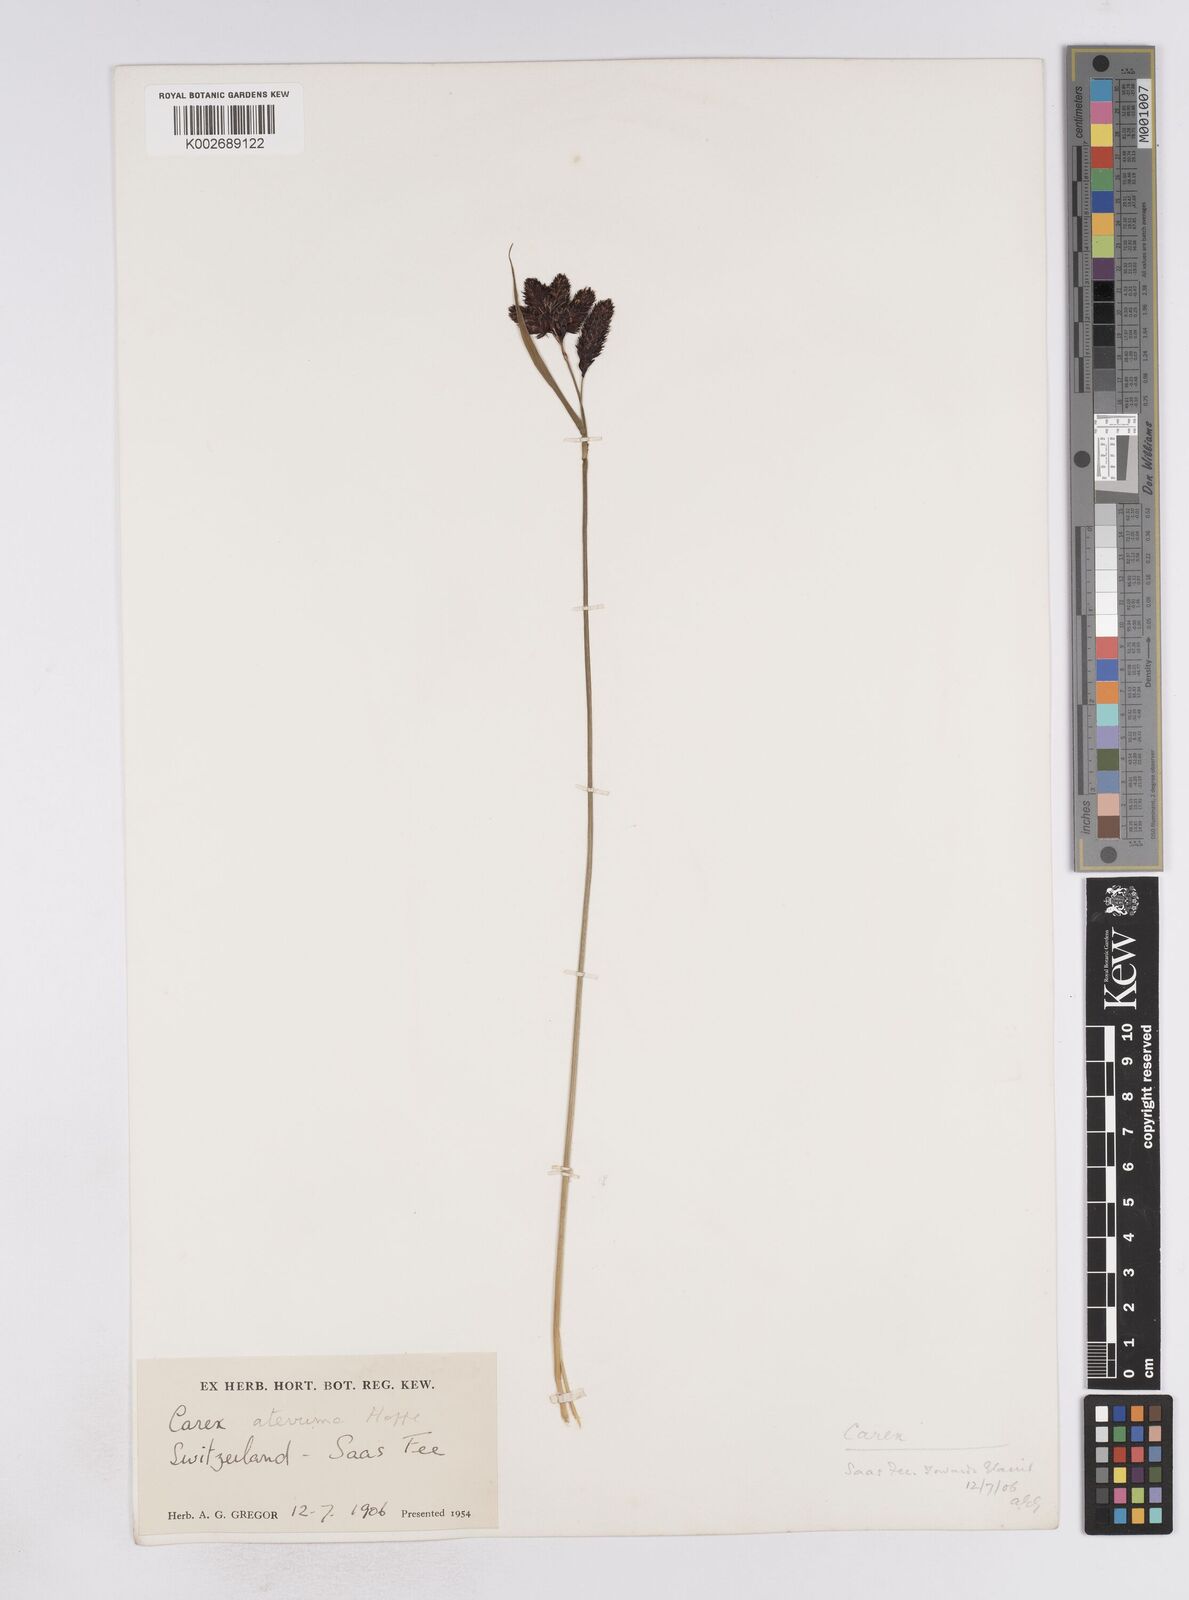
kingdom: Plantae
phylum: Tracheophyta
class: Liliopsida
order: Poales
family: Cyperaceae
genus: Carex
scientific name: Carex aterrima
